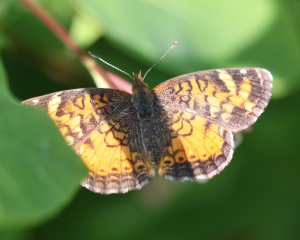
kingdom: Animalia
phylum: Arthropoda
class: Insecta
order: Lepidoptera
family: Nymphalidae
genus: Phyciodes
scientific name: Phyciodes tharos
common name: Northern Crescent
